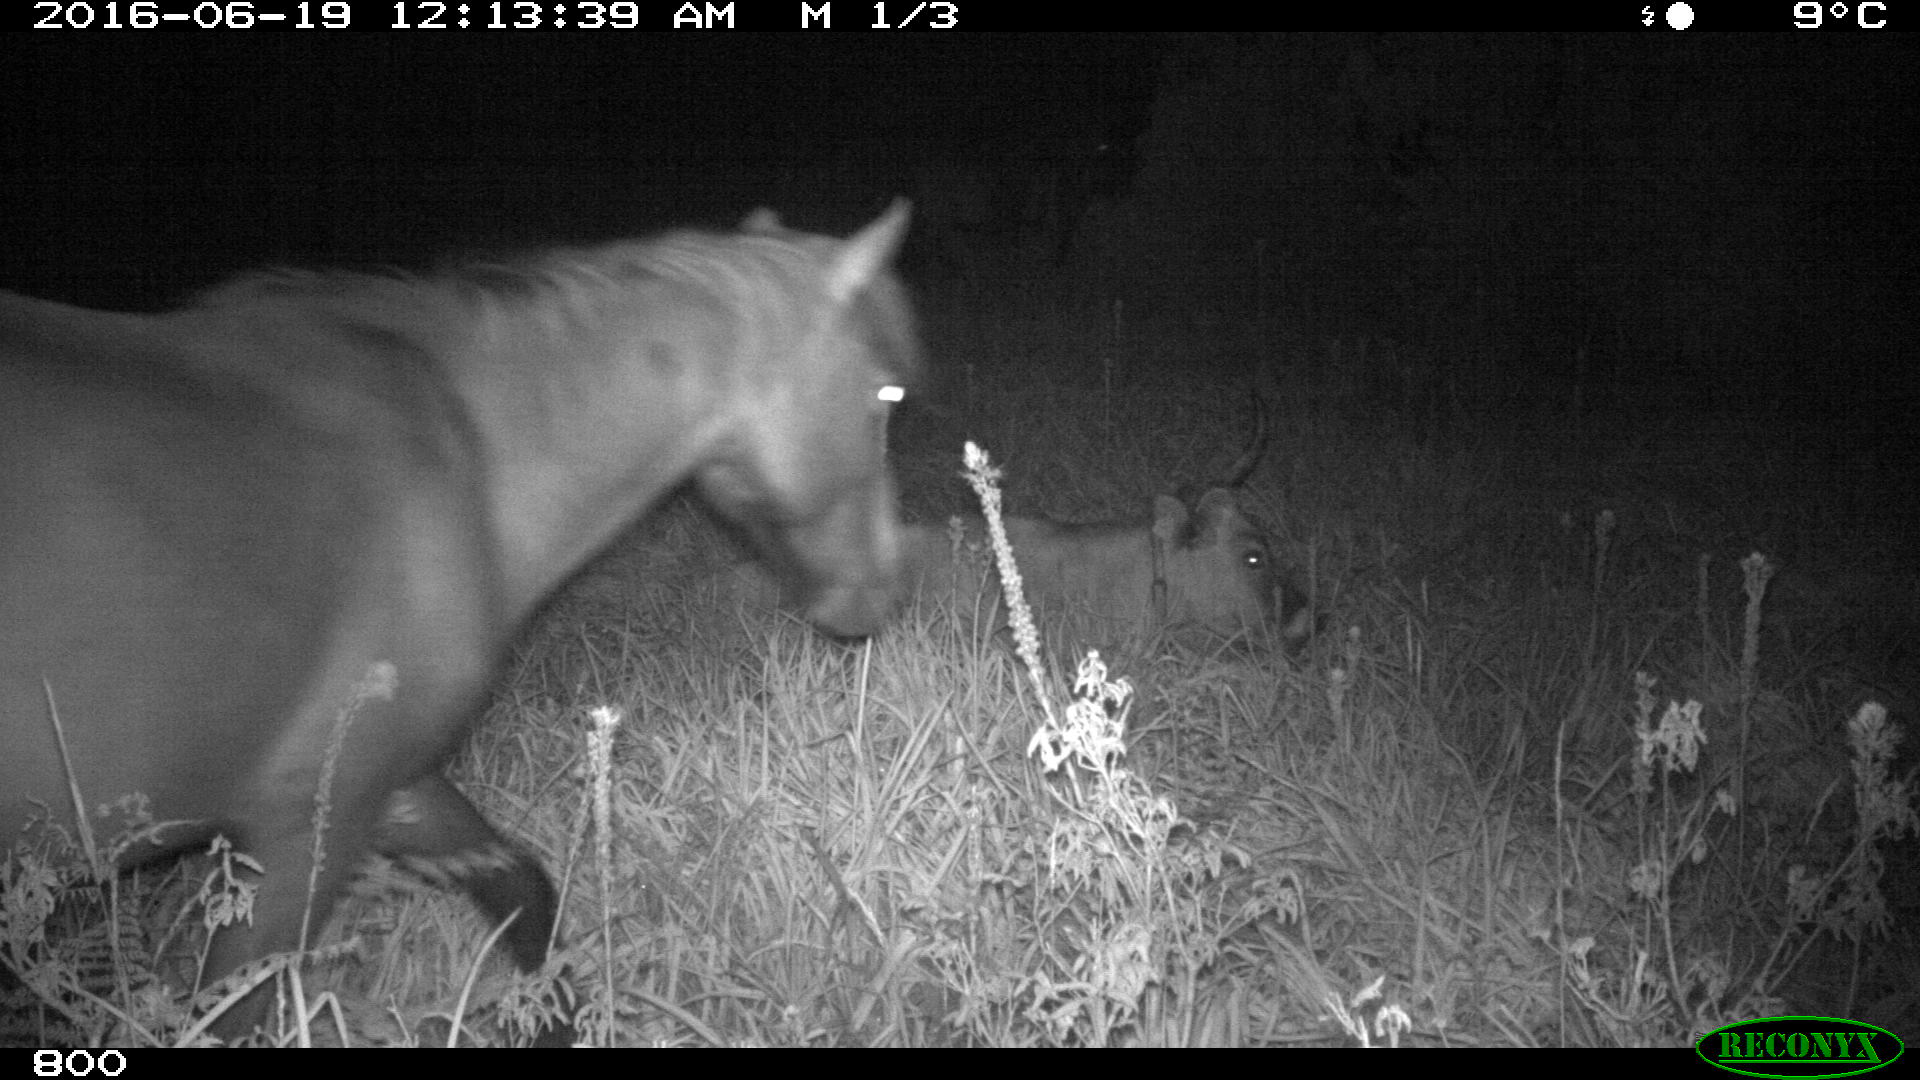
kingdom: Animalia
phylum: Chordata
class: Mammalia
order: Artiodactyla
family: Bovidae
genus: Bos
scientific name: Bos taurus
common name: Domesticated cattle
